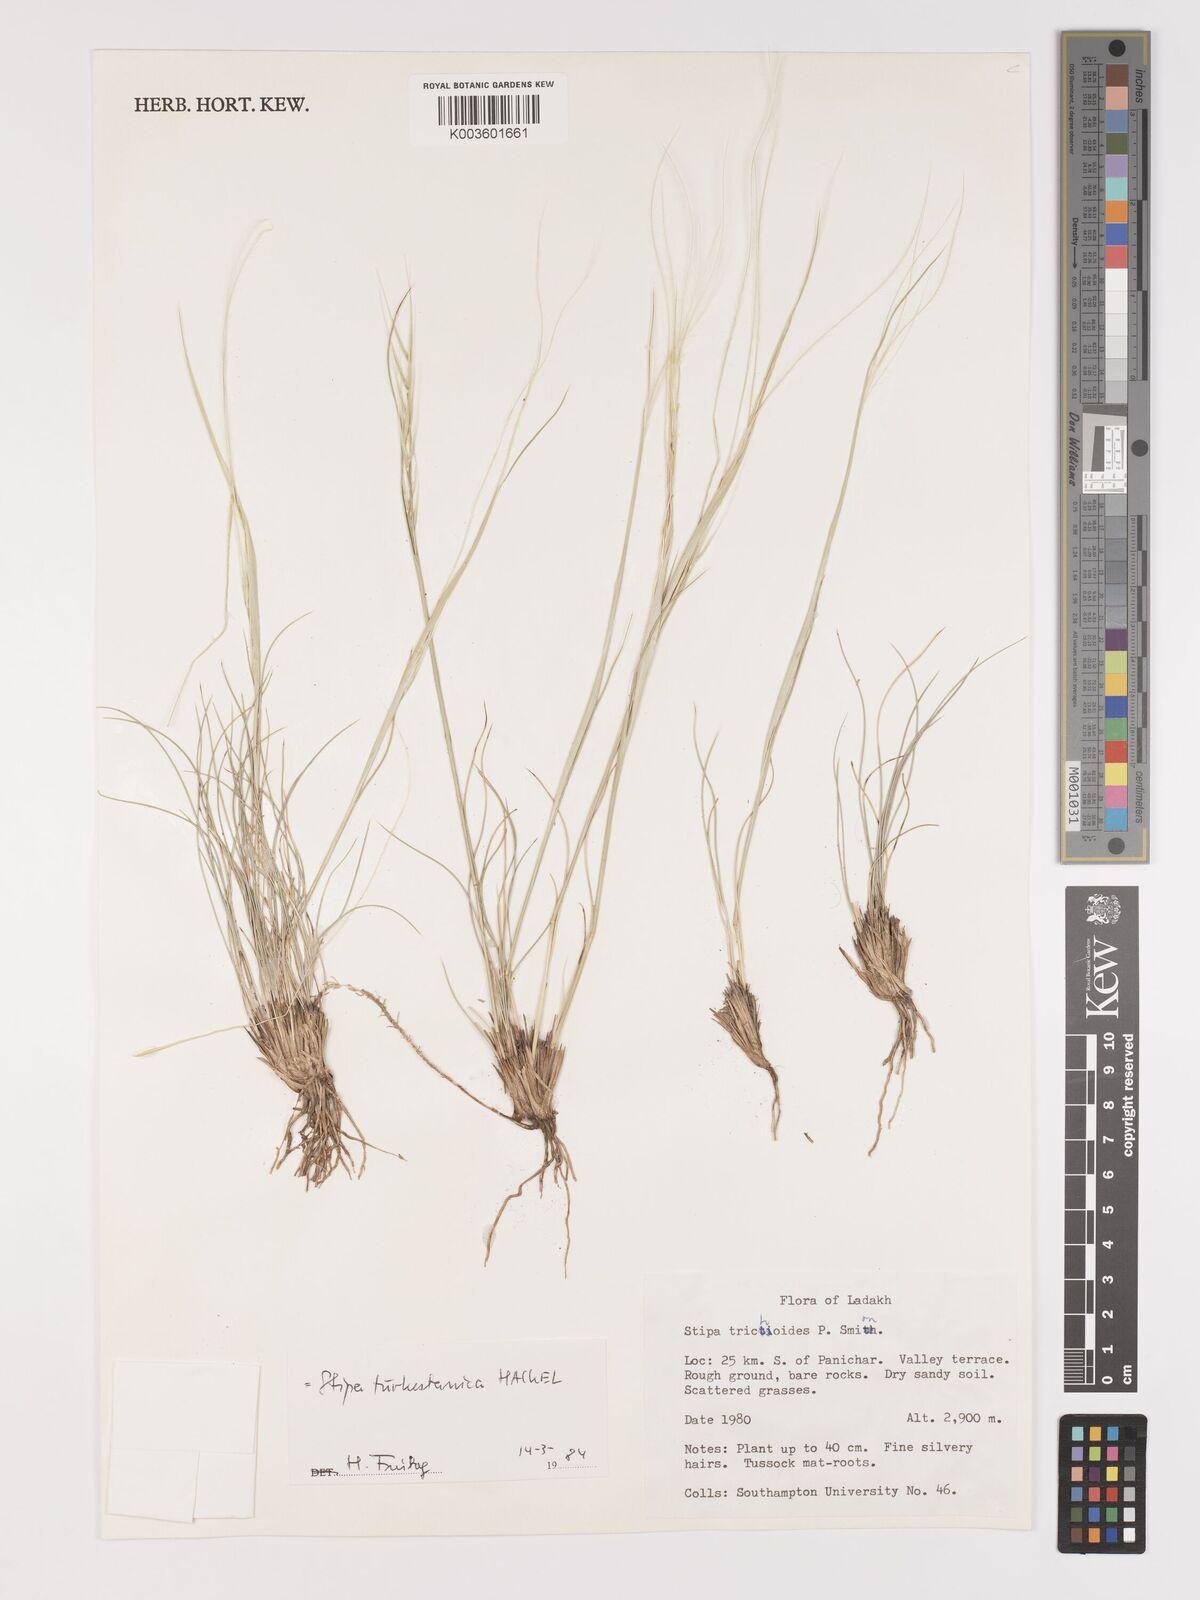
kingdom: Plantae
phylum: Tracheophyta
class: Liliopsida
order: Poales
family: Poaceae
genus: Stipa
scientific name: Stipa turkestanica
